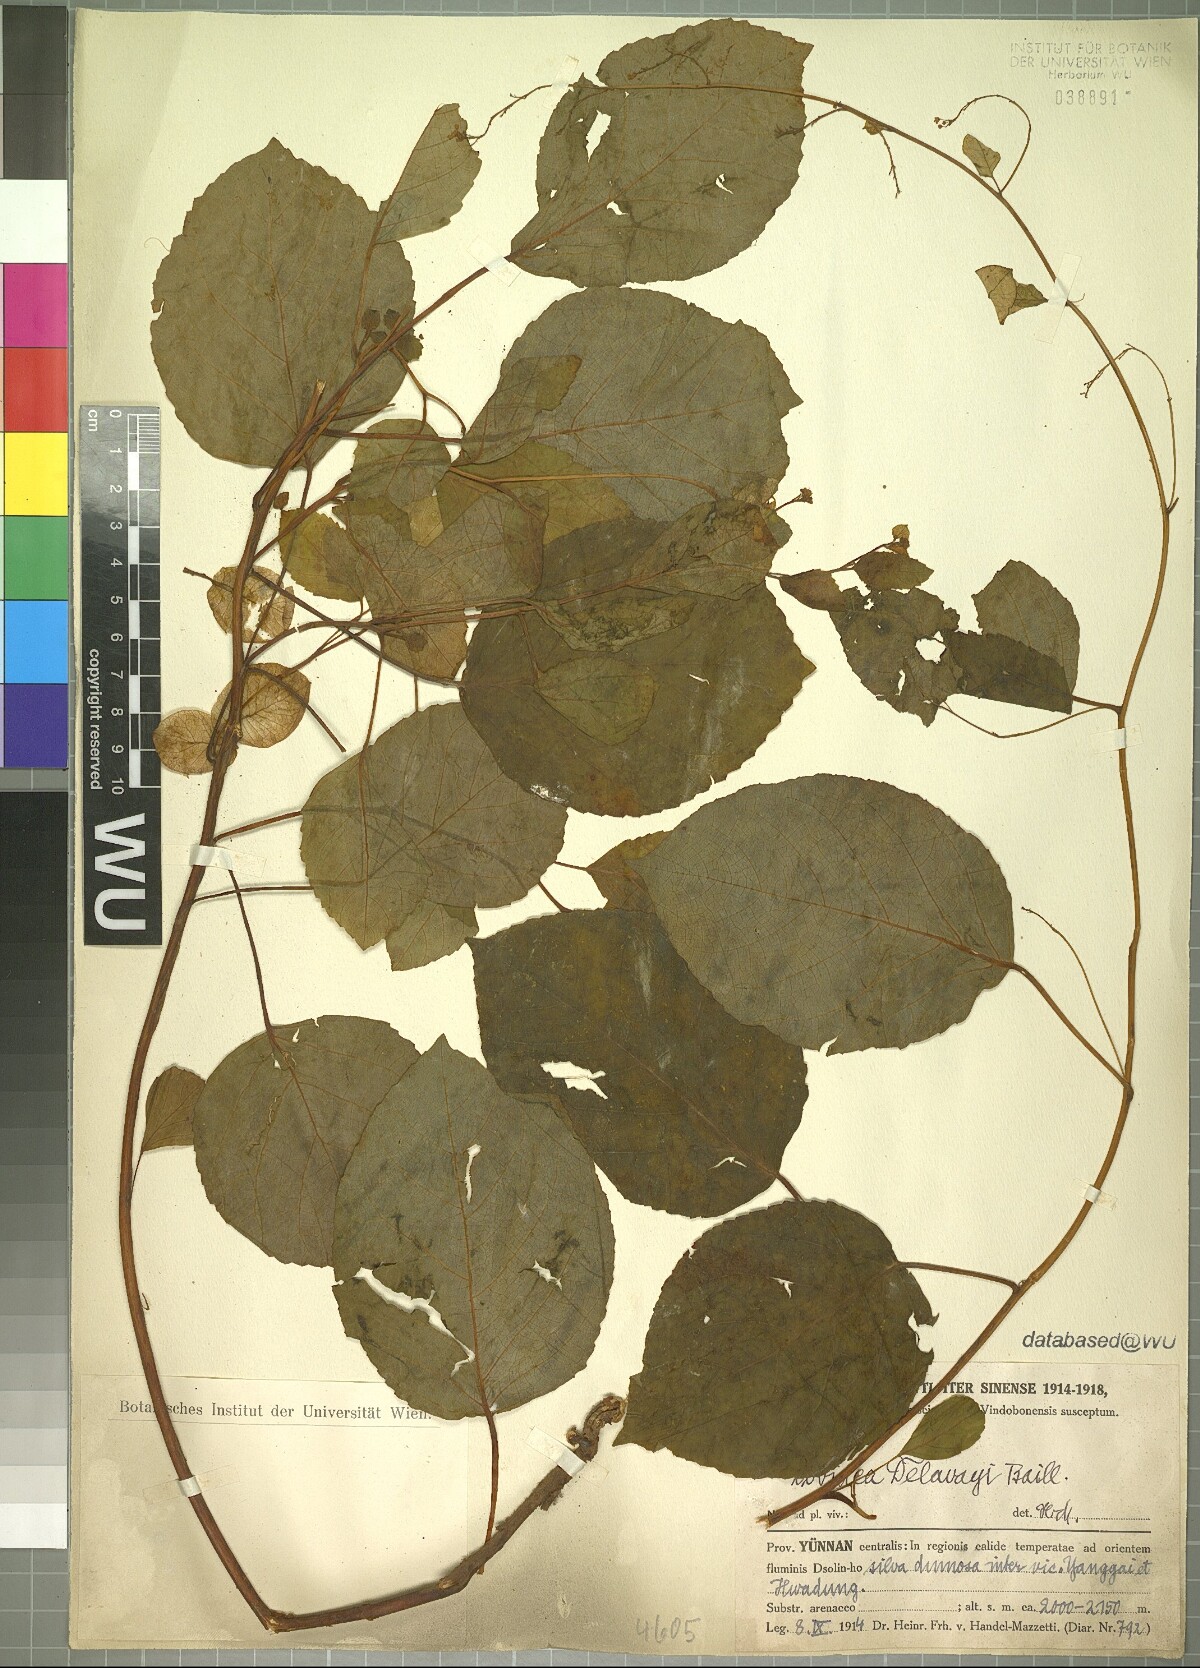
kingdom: Plantae
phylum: Tracheophyta
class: Magnoliopsida
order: Sapindales
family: Anacardiaceae
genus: Dobinea
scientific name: Dobinea delavayi
